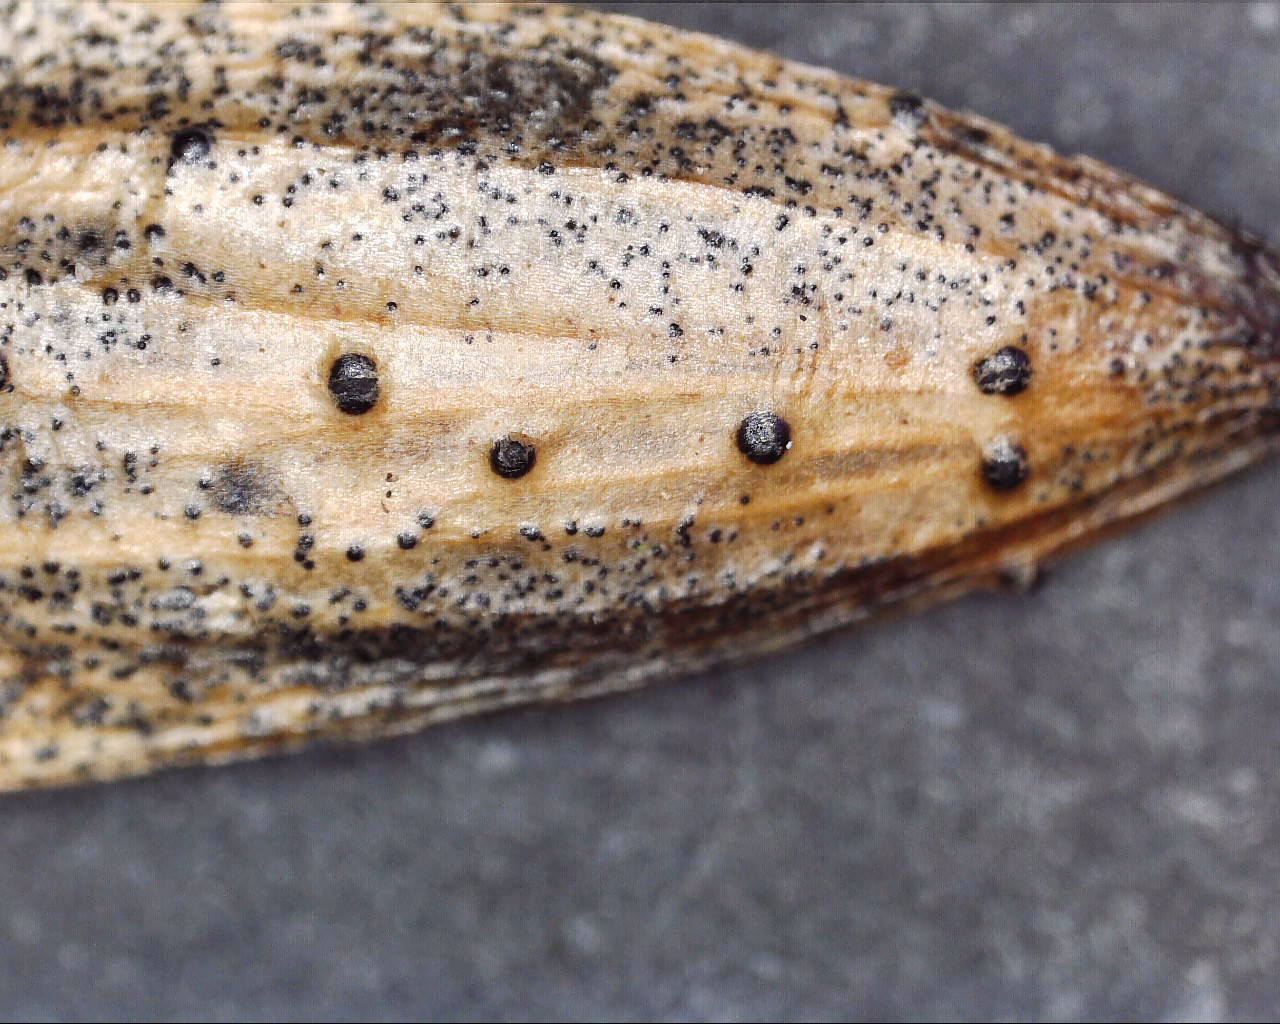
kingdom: Fungi
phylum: Ascomycota
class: Sordariomycetes
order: Diaporthales
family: Diaporthaceae
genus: Diaporthe
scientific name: Diaporthe samaricola
